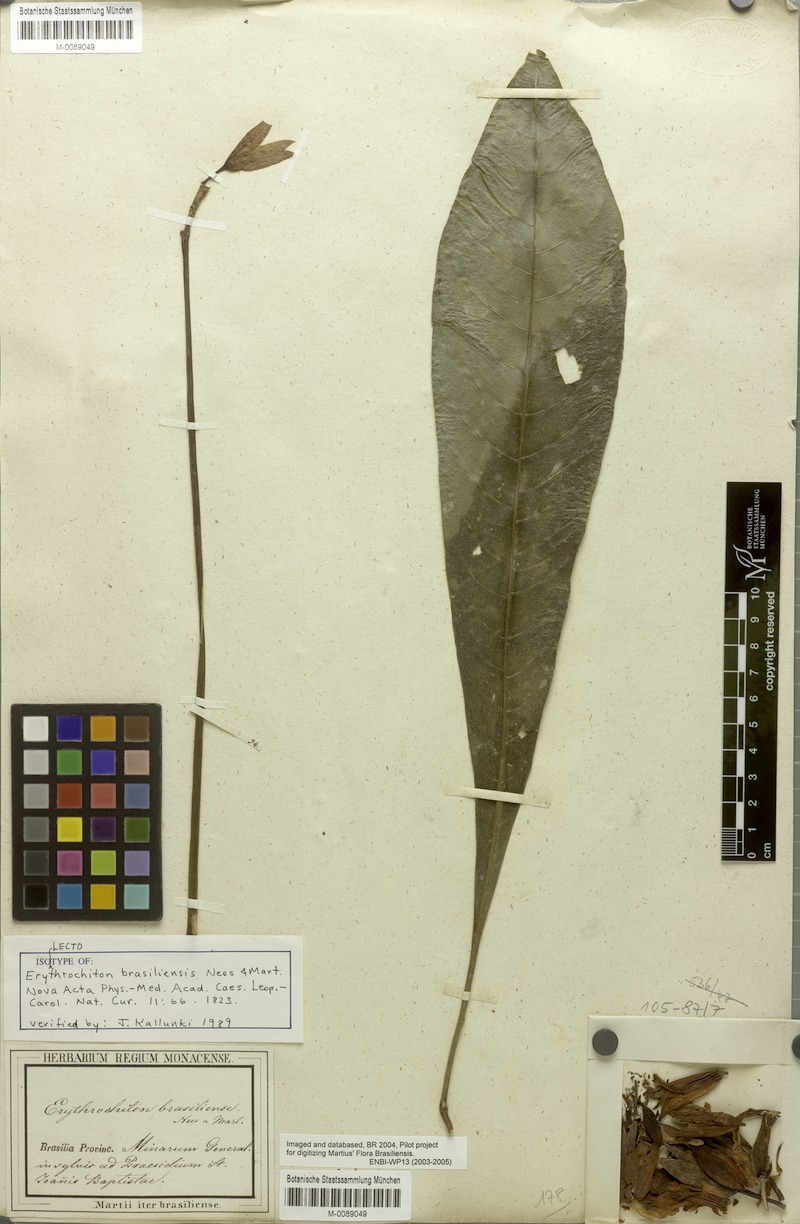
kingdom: Plantae
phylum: Tracheophyta
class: Magnoliopsida
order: Sapindales
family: Rutaceae
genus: Erythrochiton
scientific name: Erythrochiton brasiliensis
